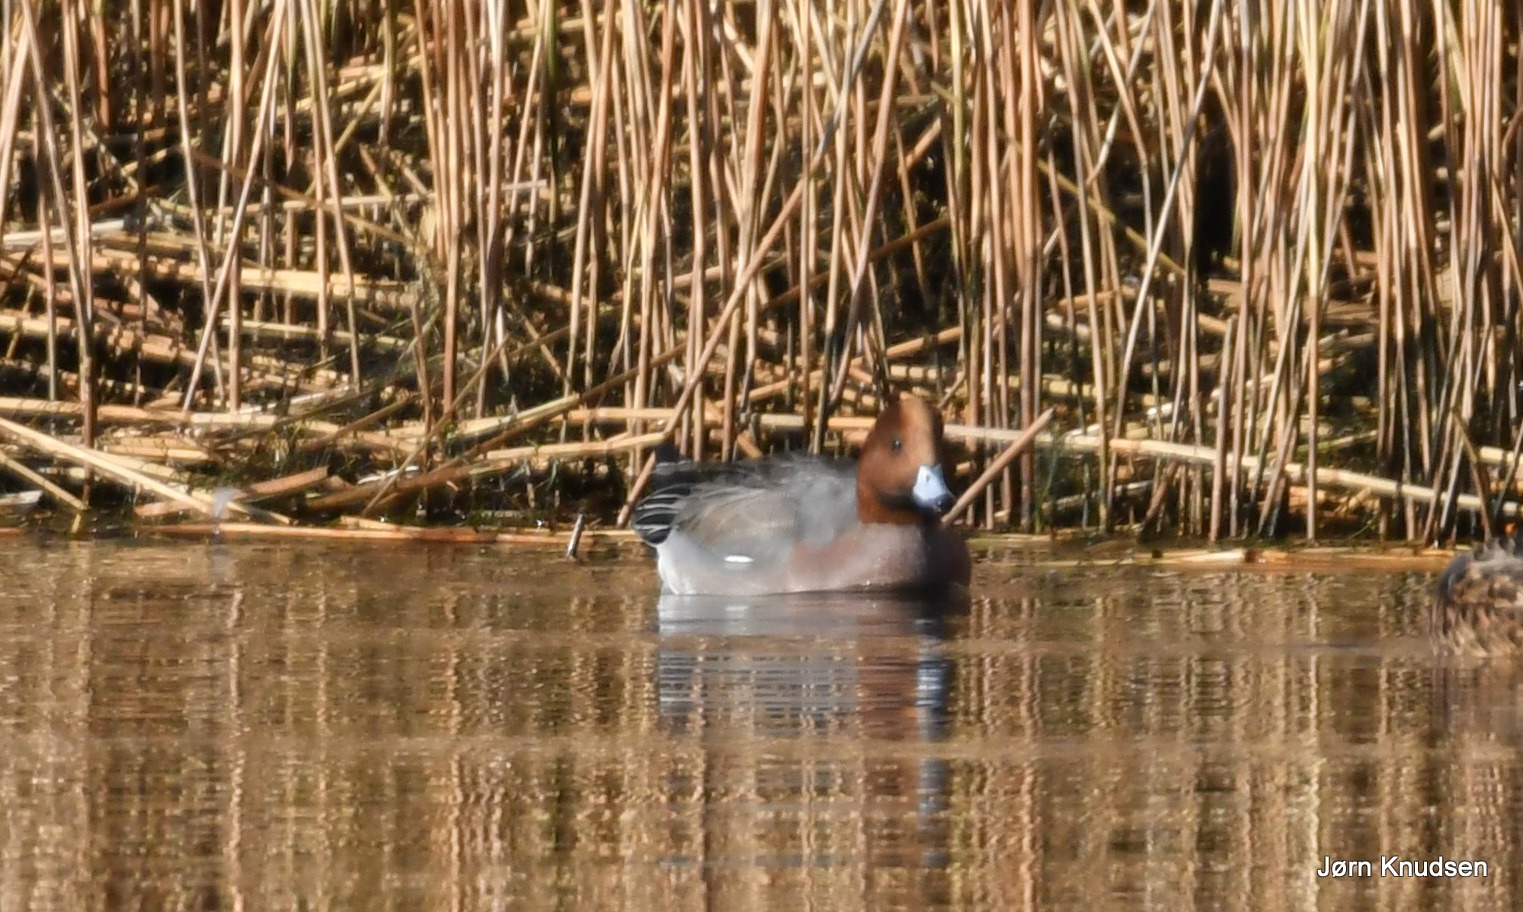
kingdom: Animalia
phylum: Chordata
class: Aves
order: Anseriformes
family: Anatidae
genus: Mareca
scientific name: Mareca penelope
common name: Pibeand
